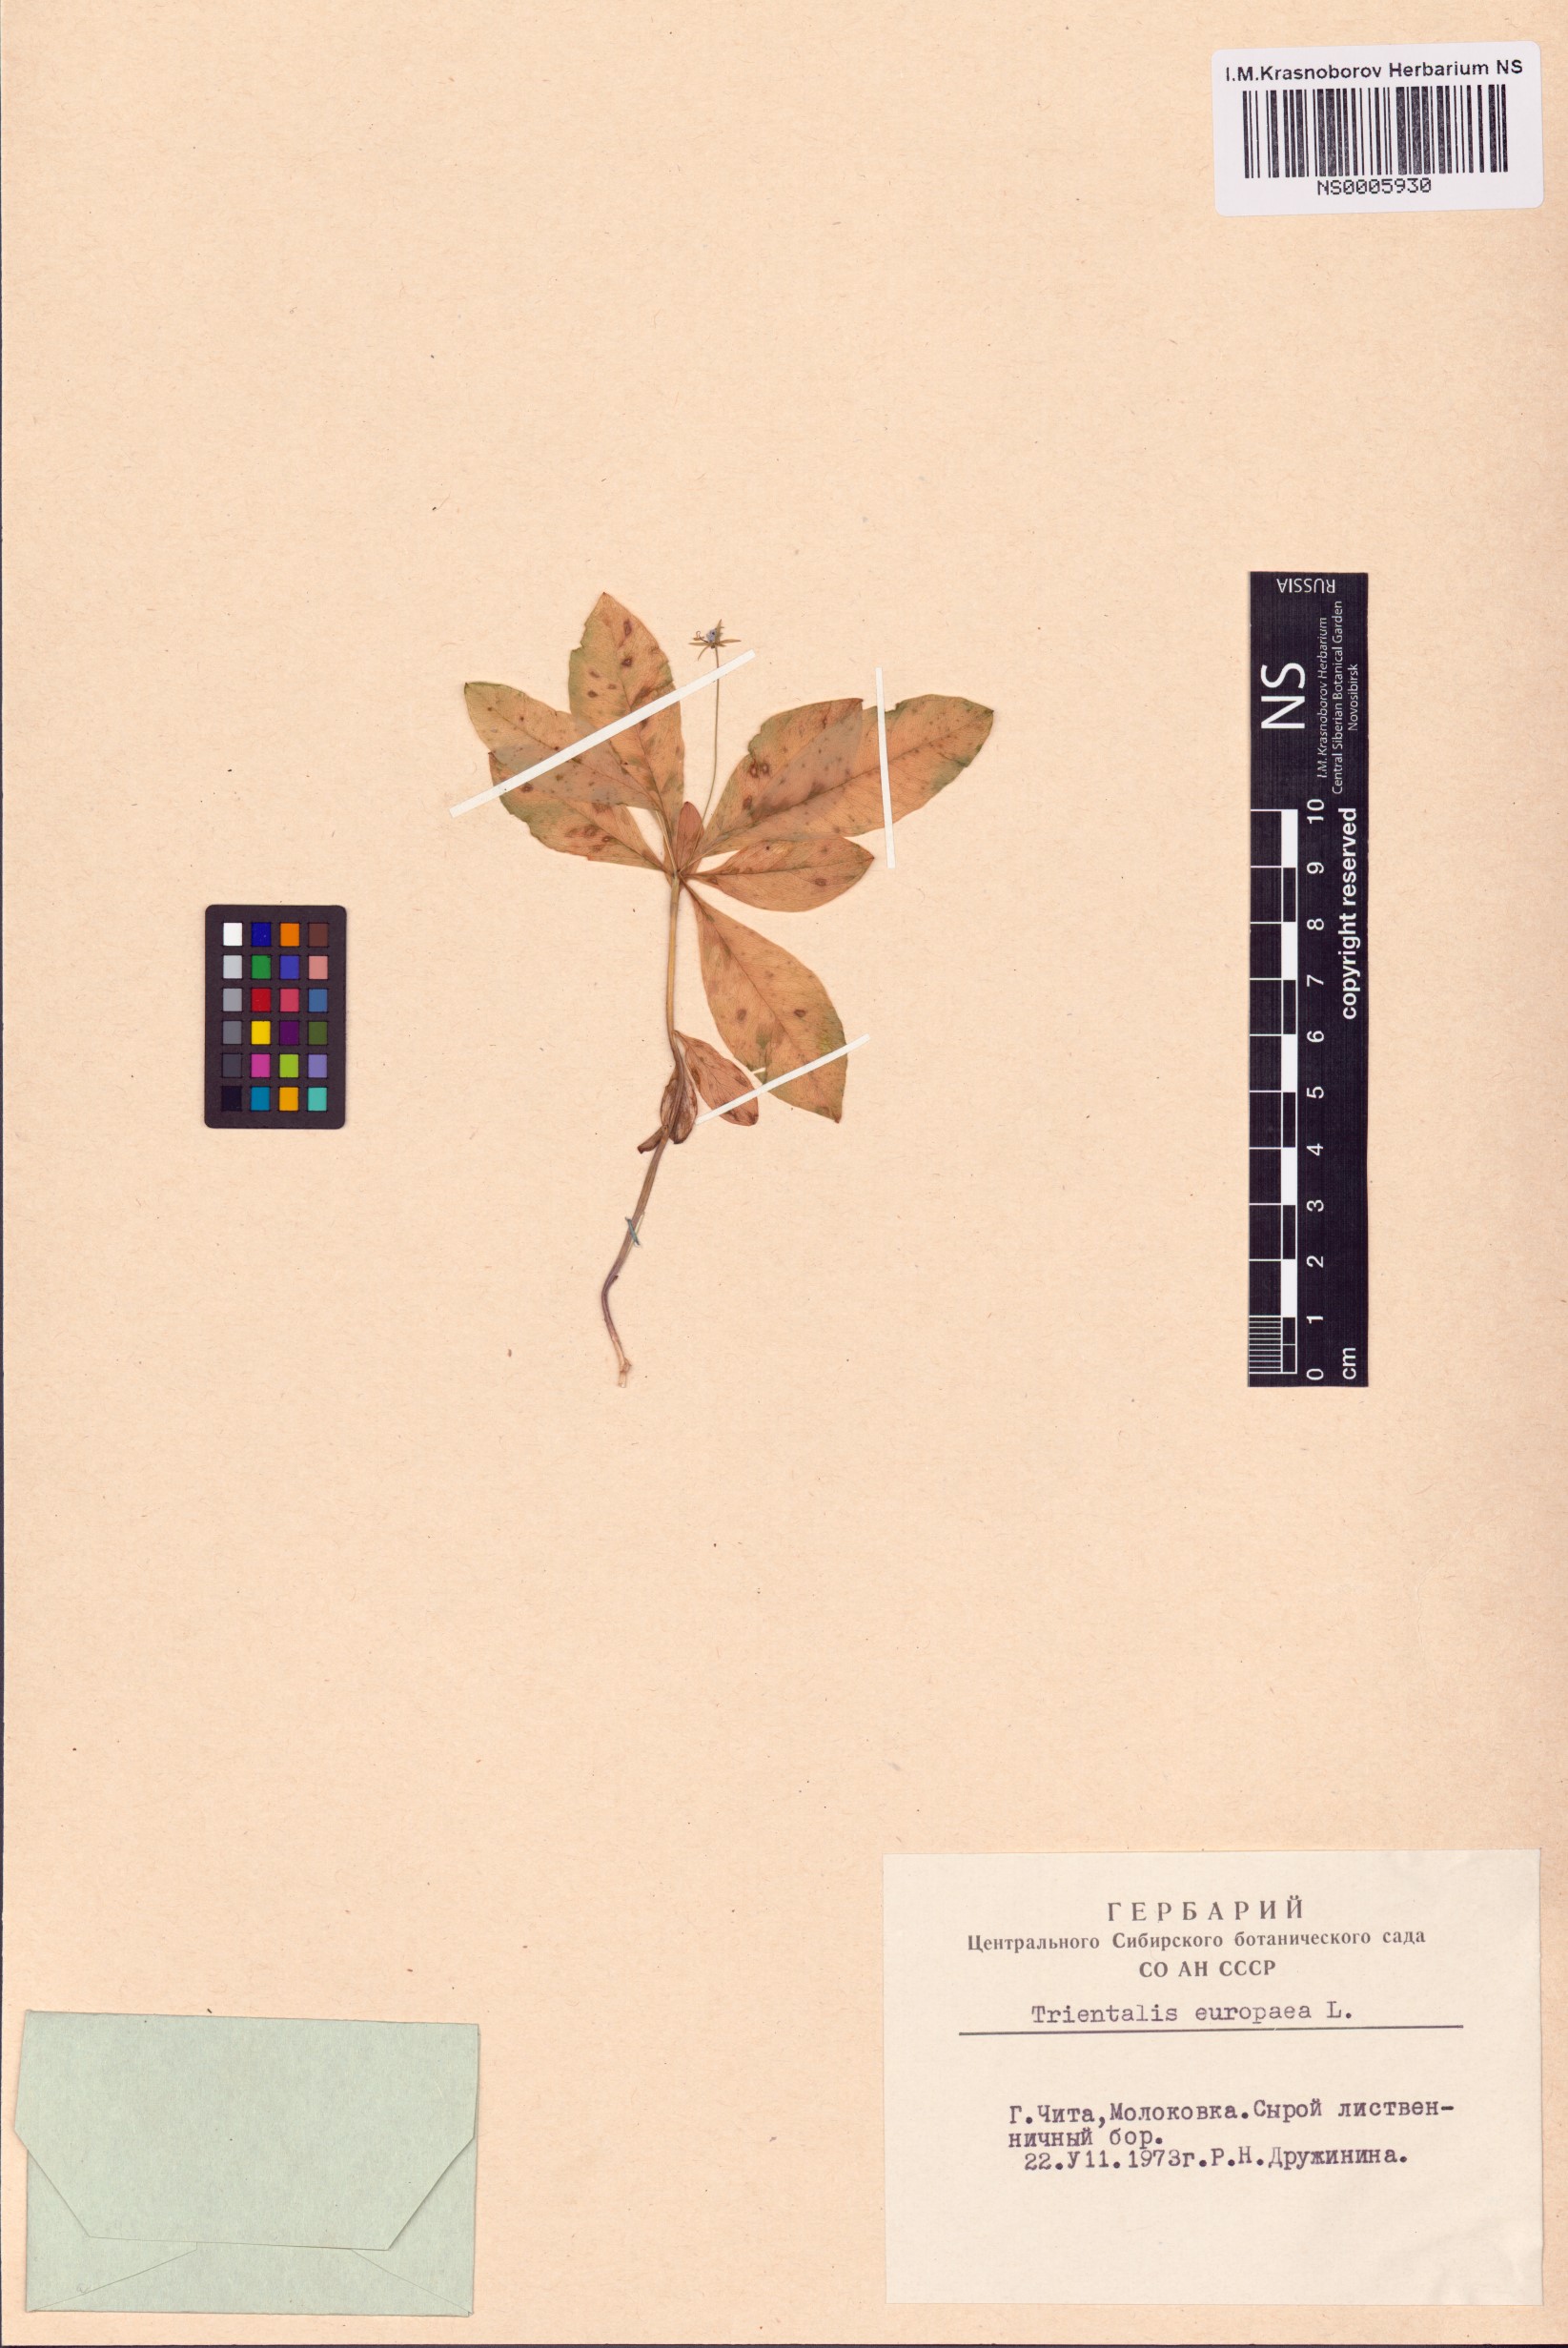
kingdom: Plantae
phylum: Tracheophyta
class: Magnoliopsida
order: Ericales
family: Primulaceae
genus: Lysimachia
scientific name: Lysimachia europaea
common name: Arctic starflower
